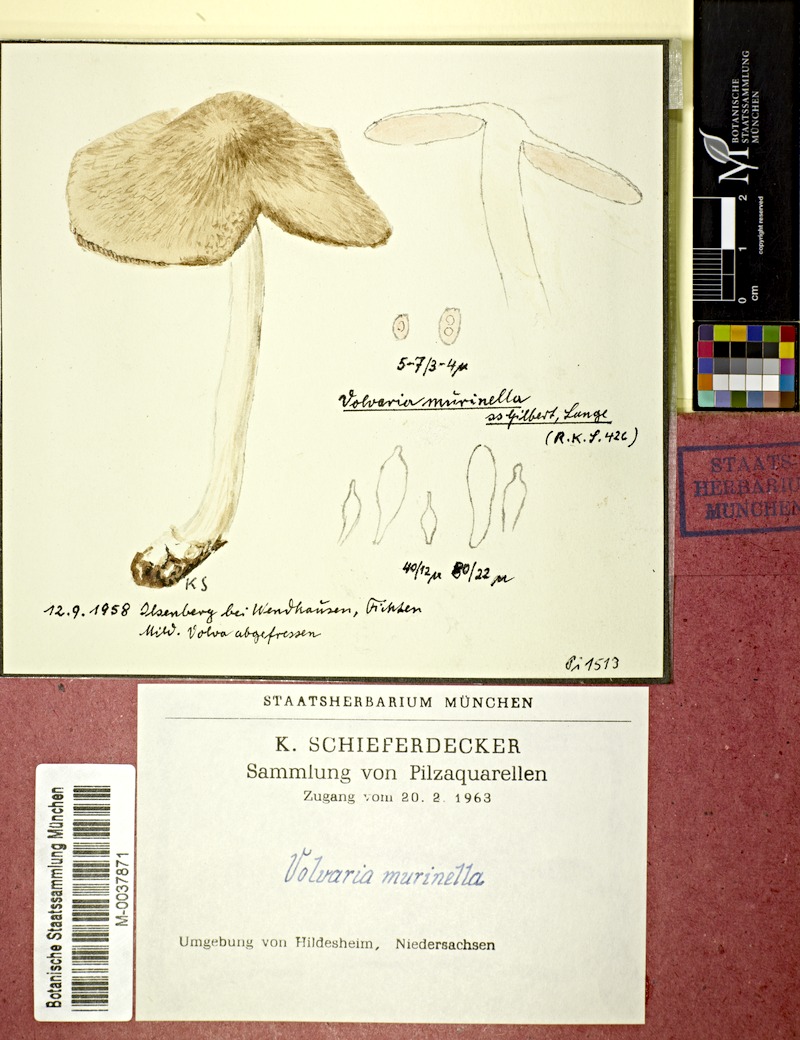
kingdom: Fungi
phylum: Basidiomycota
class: Agaricomycetes
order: Agaricales
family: Pluteaceae
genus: Volvariella
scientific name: Volvariella murinella
